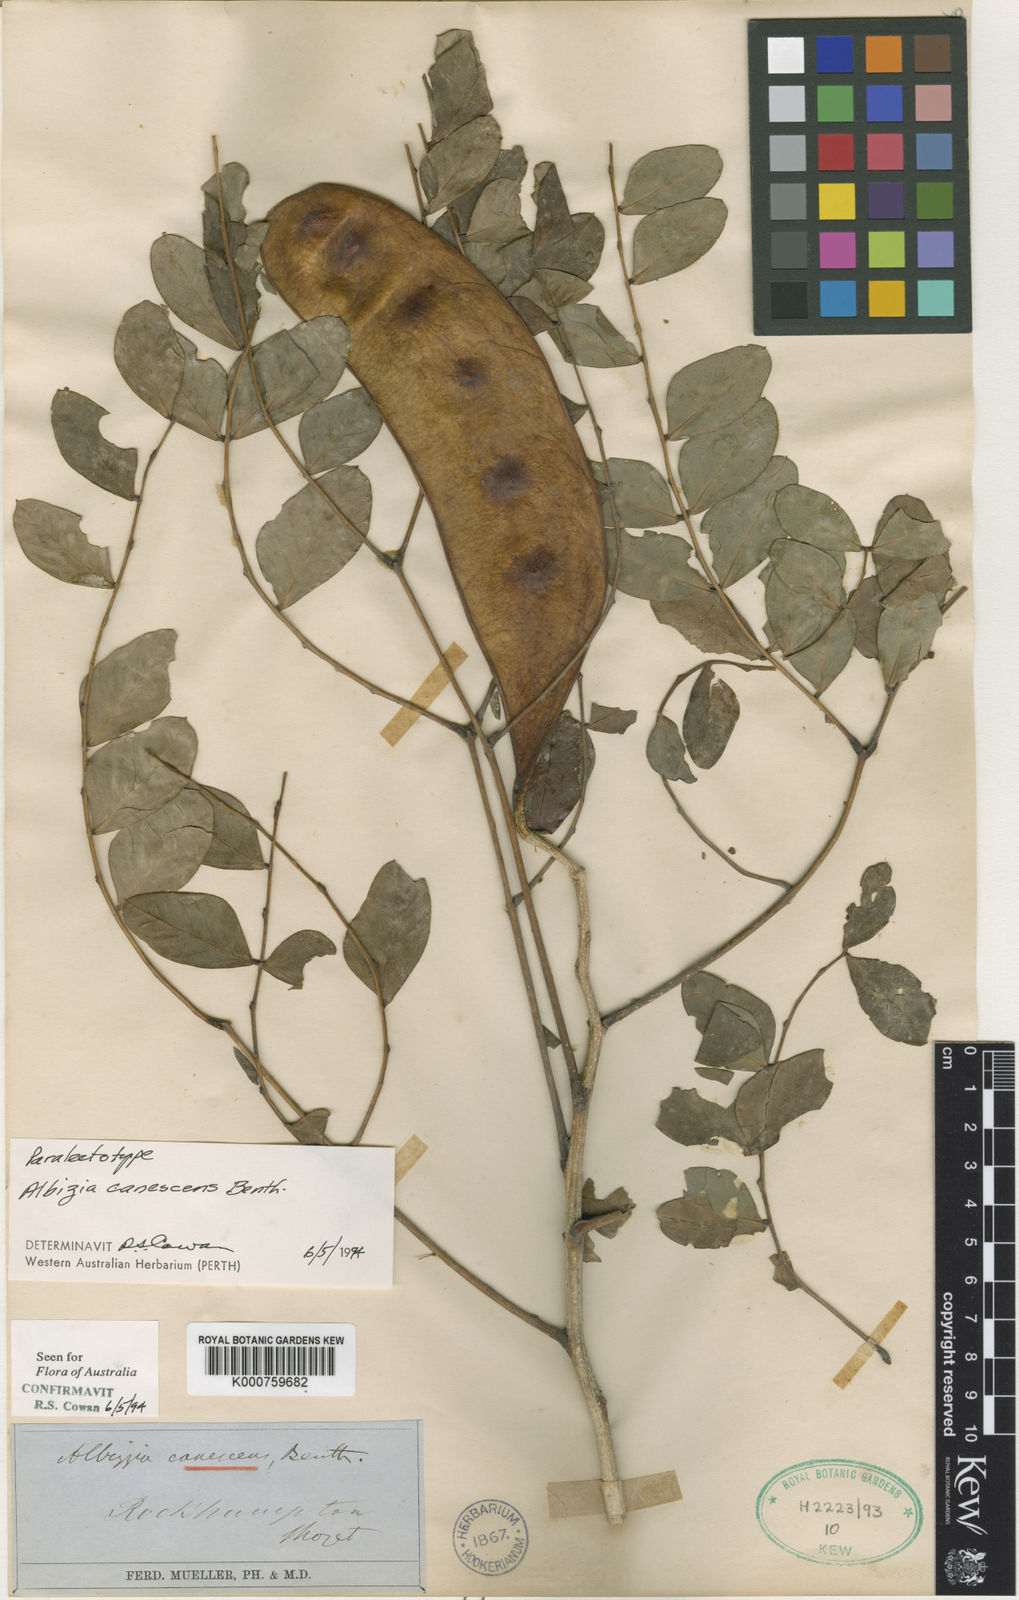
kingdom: Plantae
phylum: Tracheophyta
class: Magnoliopsida
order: Fabales
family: Fabaceae
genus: Albizia
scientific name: Albizia canescens
